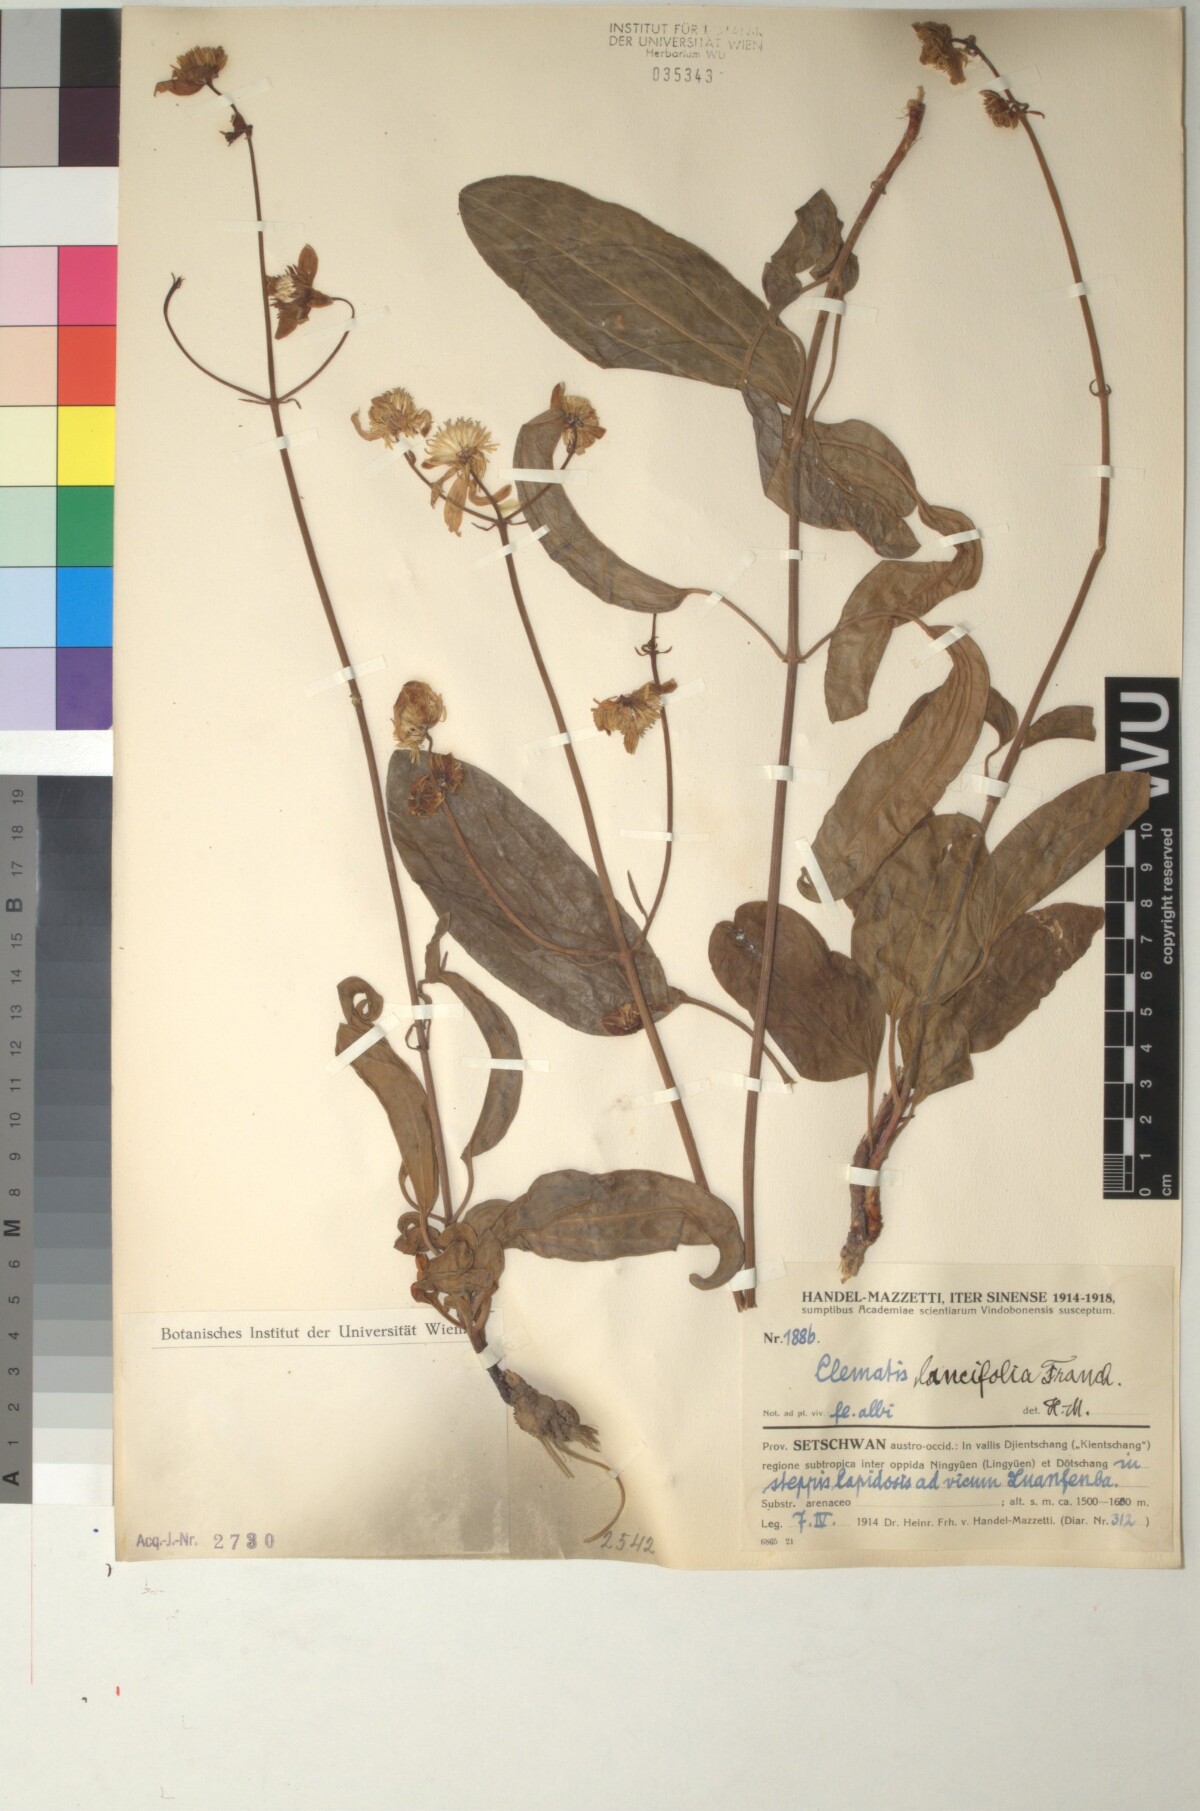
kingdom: Plantae
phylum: Tracheophyta
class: Magnoliopsida
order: Ranunculales
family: Ranunculaceae
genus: Clematis
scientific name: Clematis lancifolia
